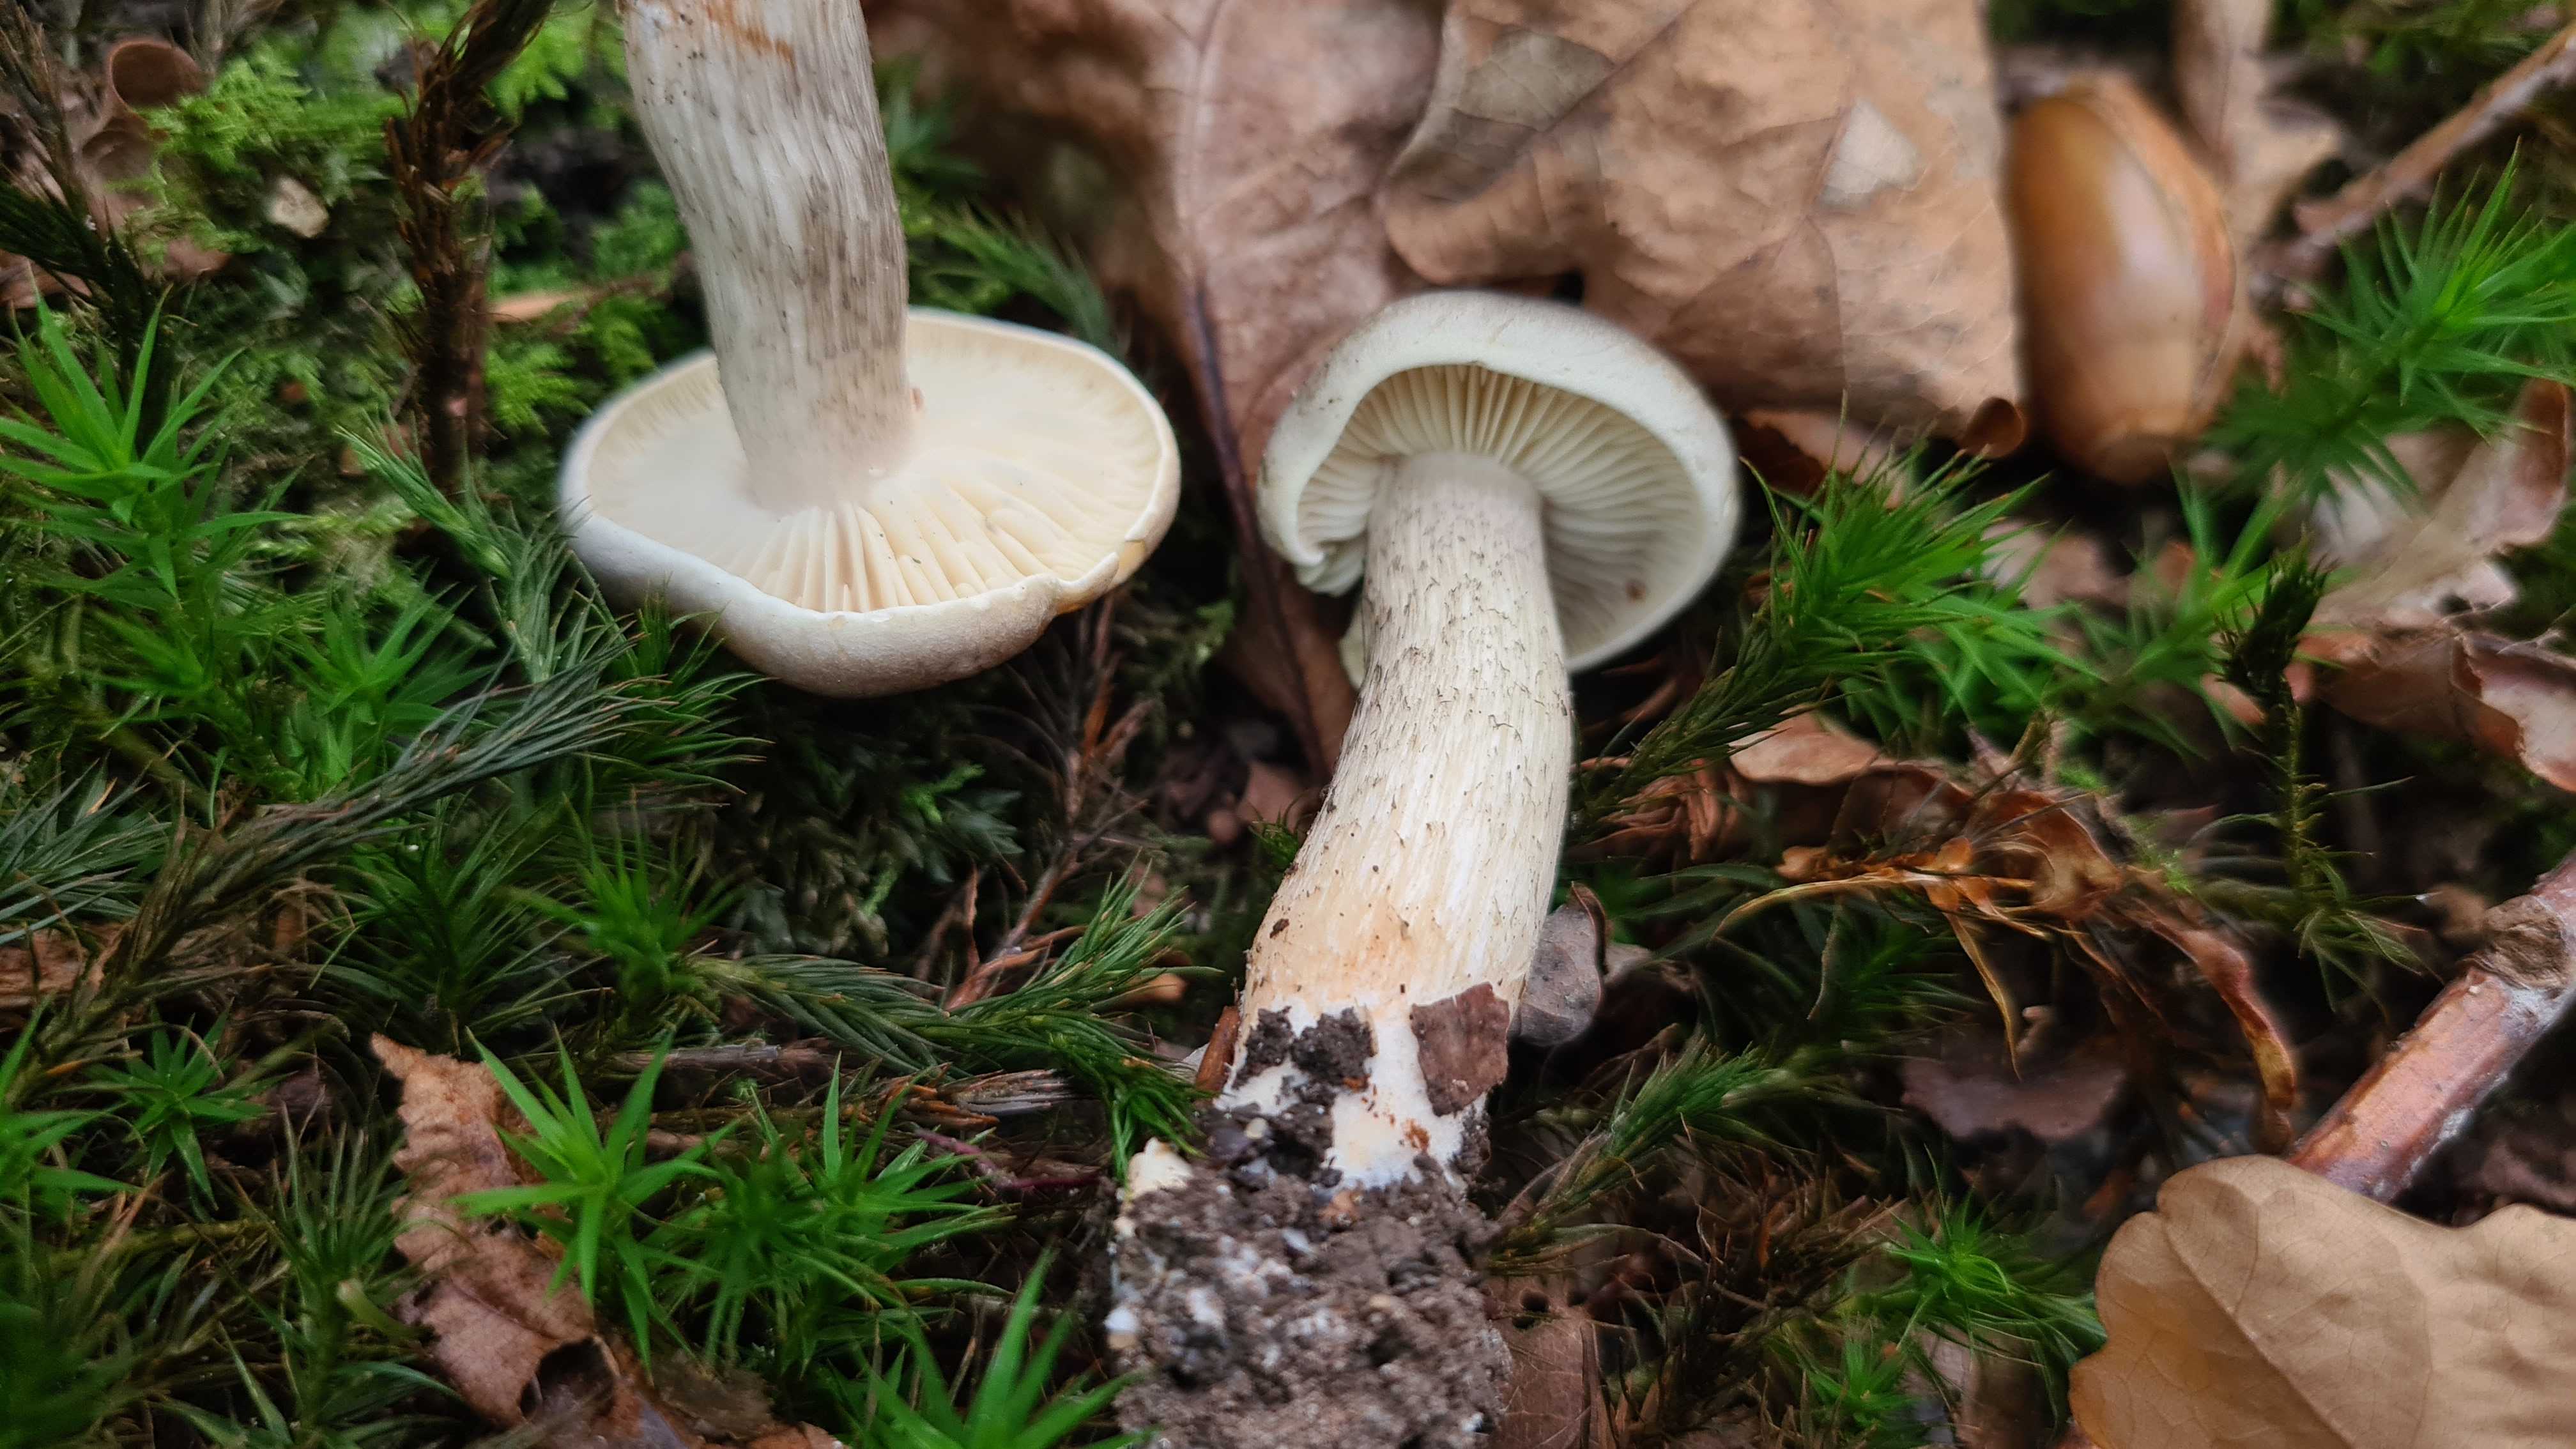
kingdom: Fungi
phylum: Basidiomycota
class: Agaricomycetes
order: Agaricales
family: Tricholomataceae
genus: Tricholoma
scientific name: Tricholoma saponaceum
